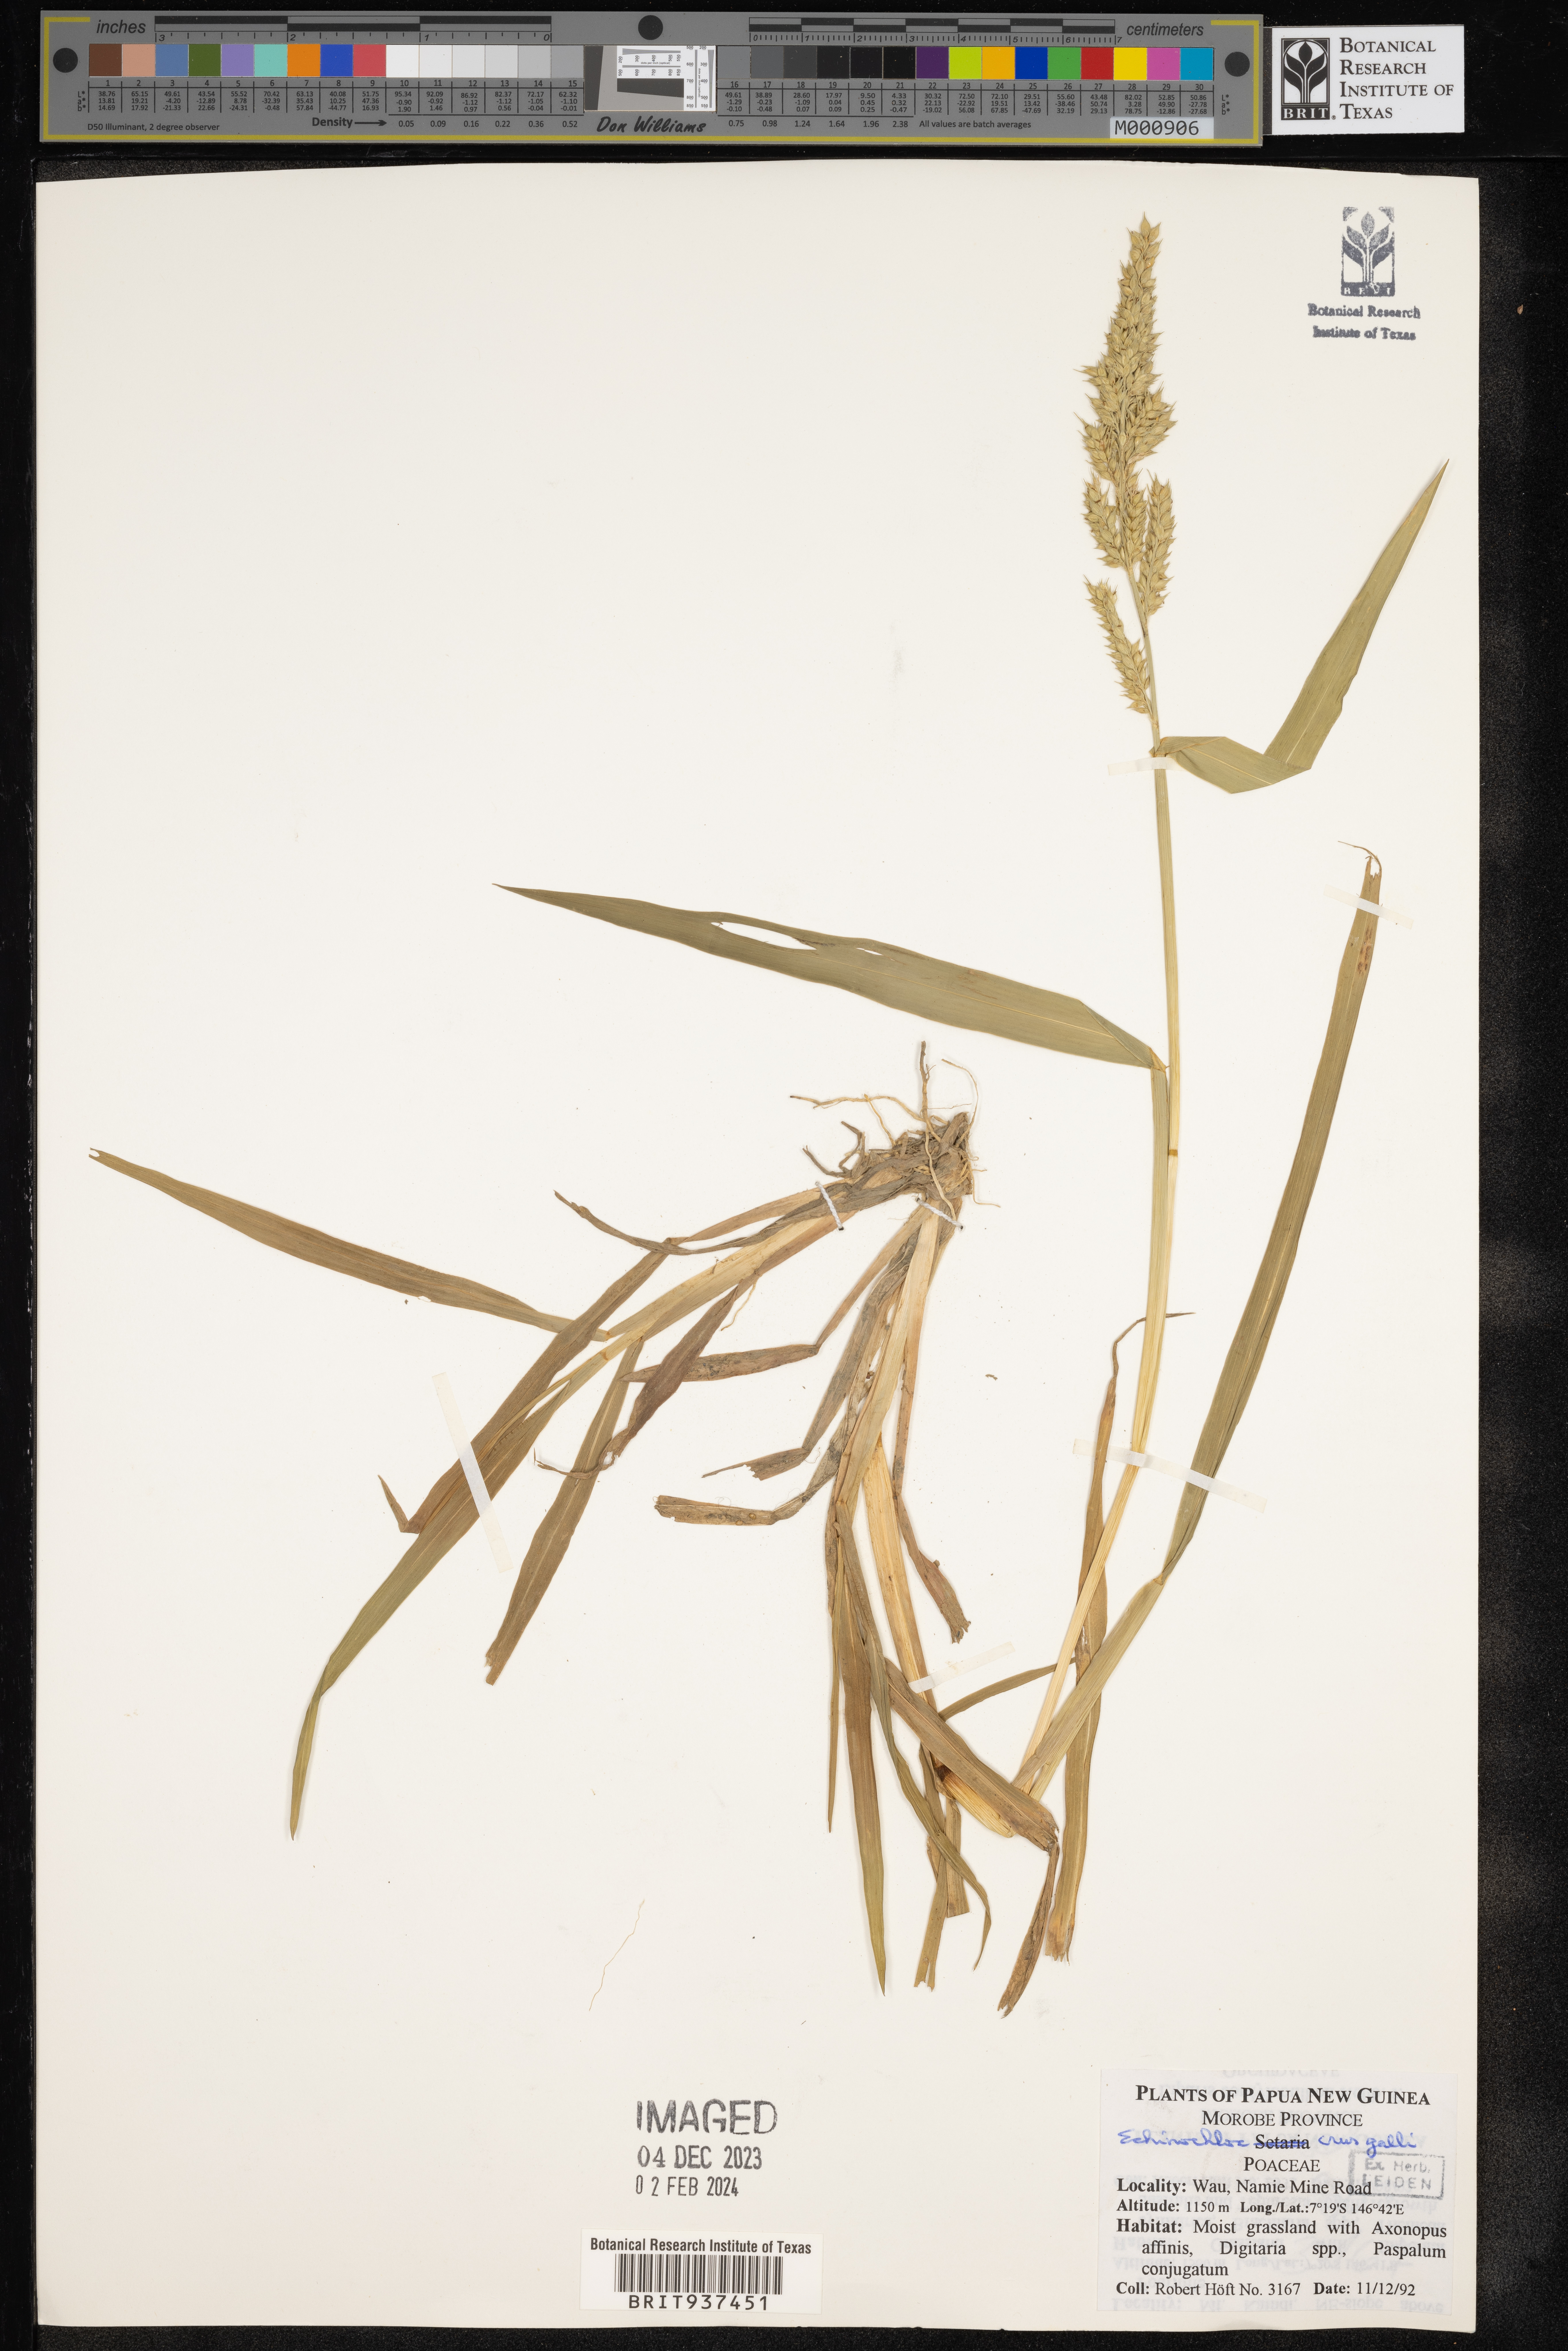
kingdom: Plantae
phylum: Tracheophyta
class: Liliopsida
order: Poales
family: Poaceae
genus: Echinochloa
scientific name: Echinochloa
